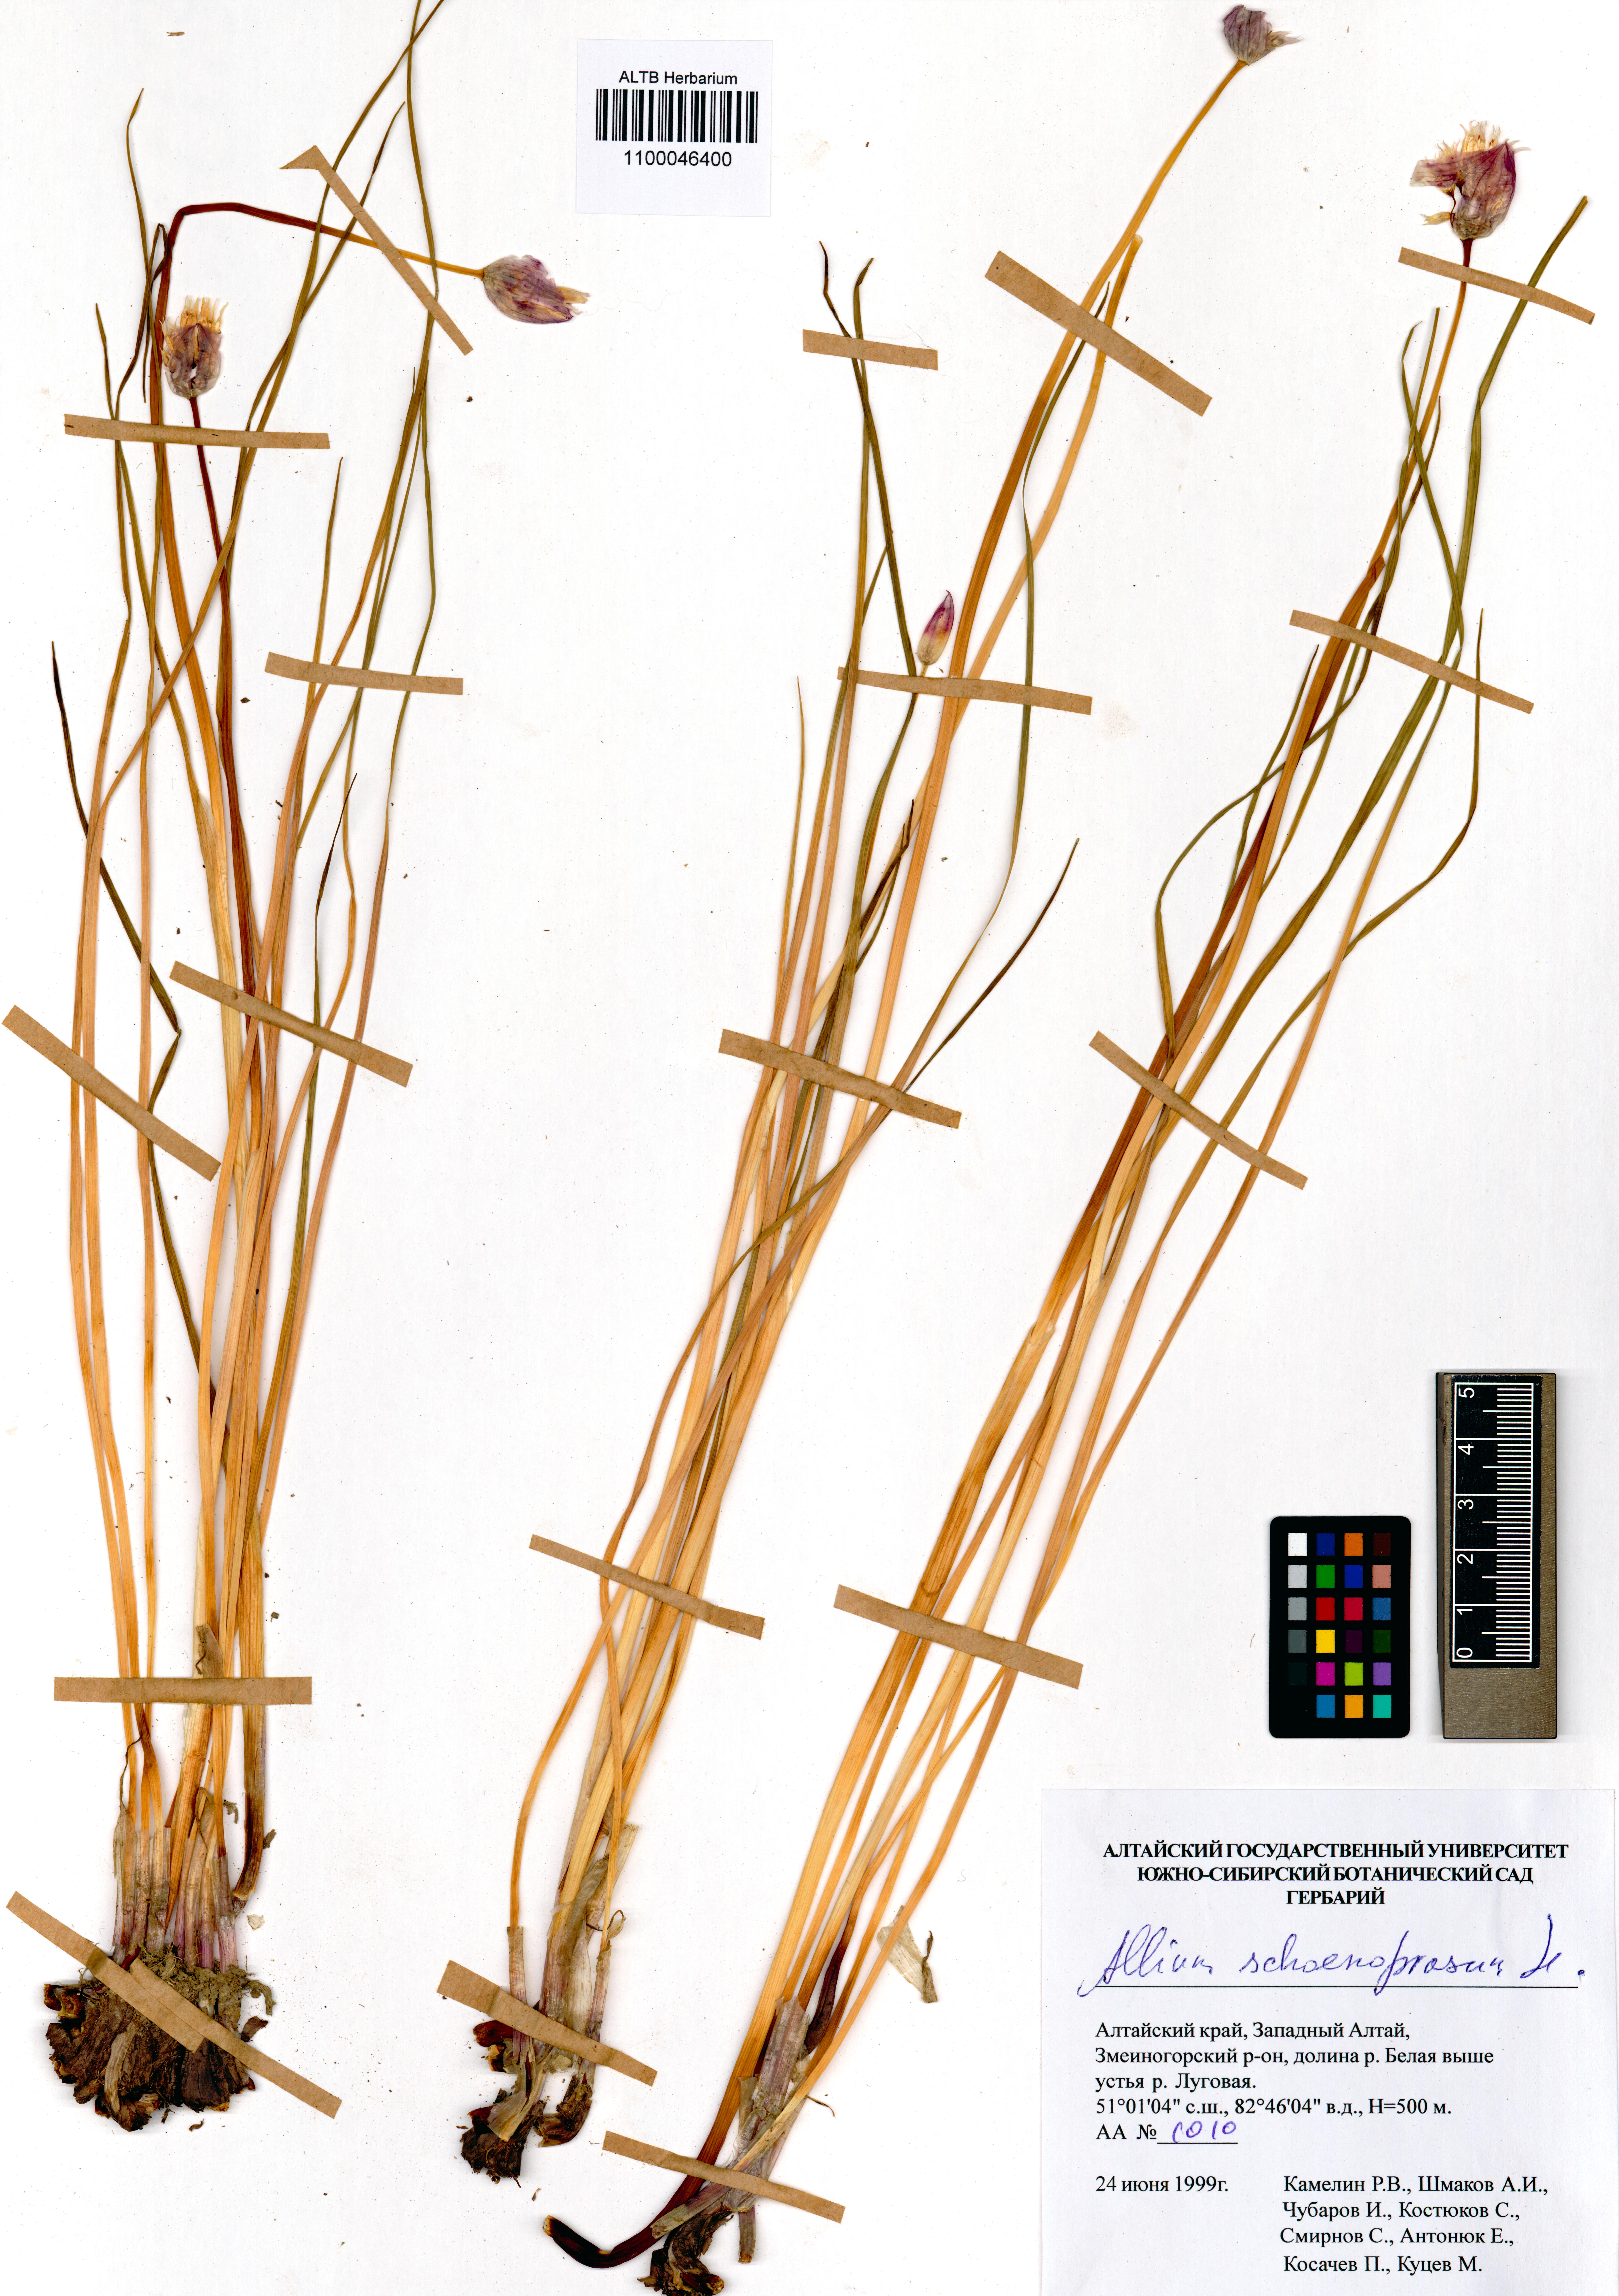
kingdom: Plantae
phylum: Tracheophyta
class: Liliopsida
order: Asparagales
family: Amaryllidaceae
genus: Allium
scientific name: Allium schoenoprasum
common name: Chives
